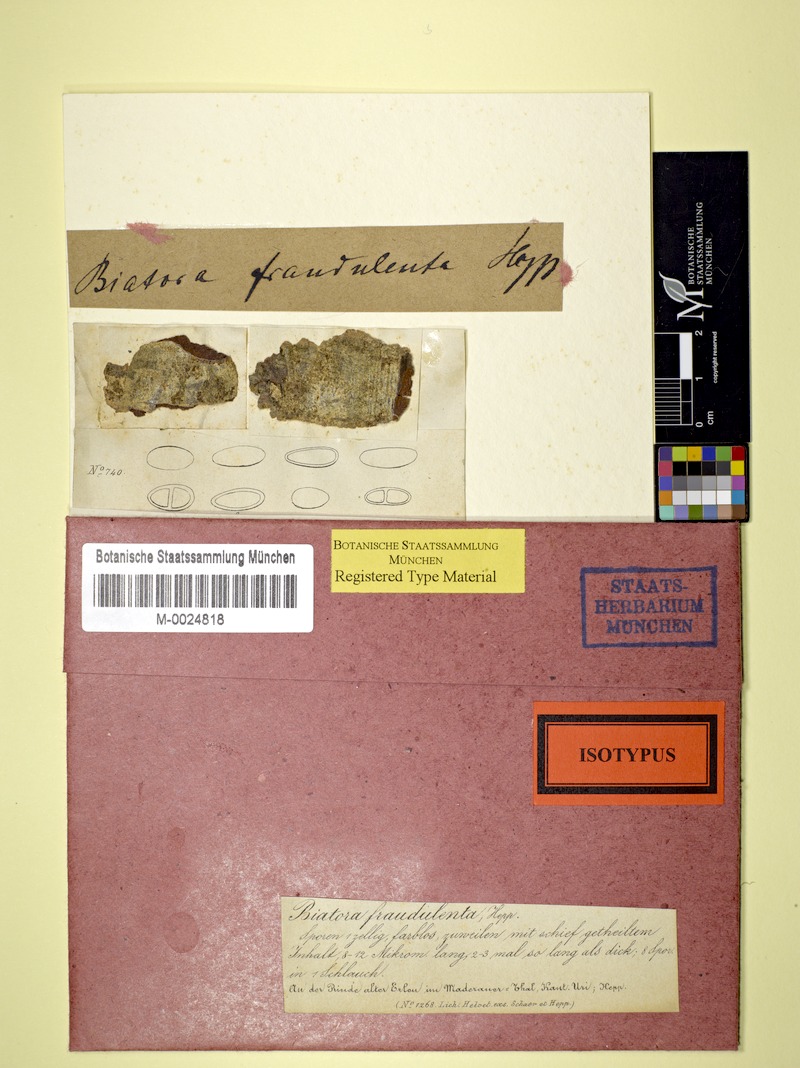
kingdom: Fungi
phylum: Ascomycota
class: Lecanoromycetes
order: Lecanorales
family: Ramalinaceae
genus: Biatora
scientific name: Biatora
